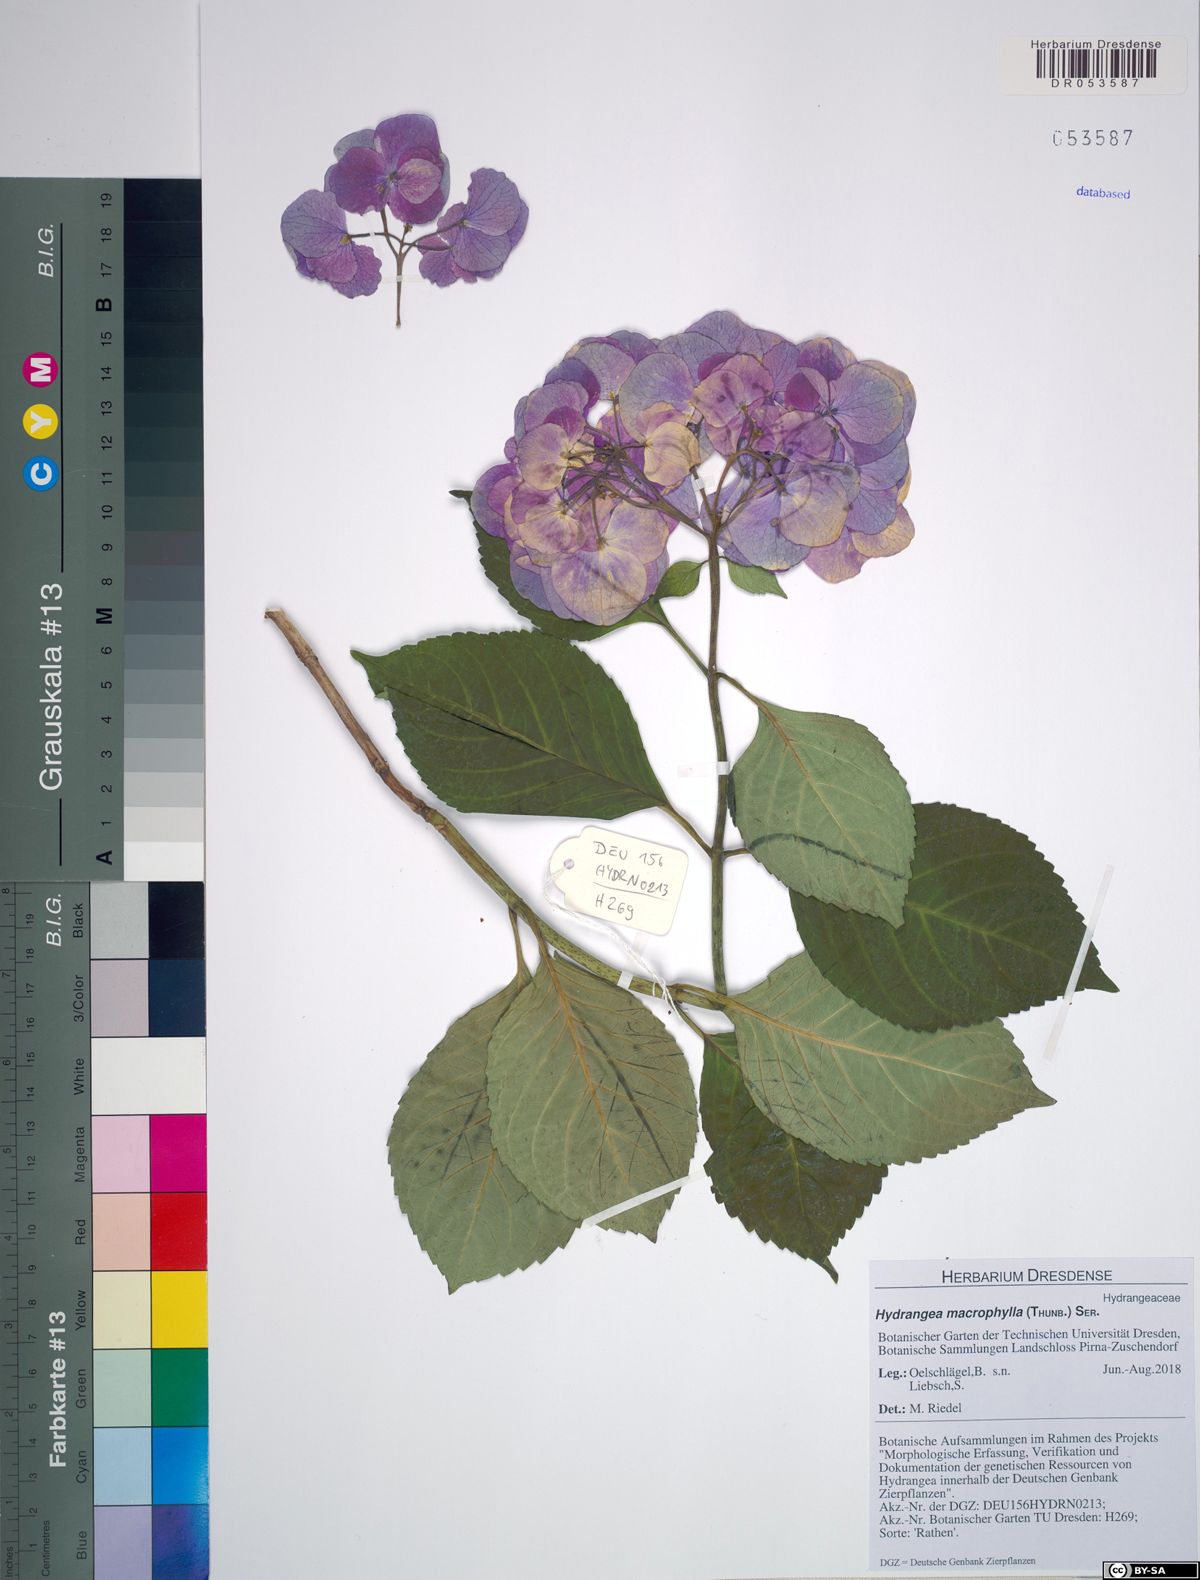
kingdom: Plantae
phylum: Tracheophyta
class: Magnoliopsida
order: Cornales
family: Hydrangeaceae
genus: Hydrangea
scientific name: Hydrangea macrophylla
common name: Hydrangea
